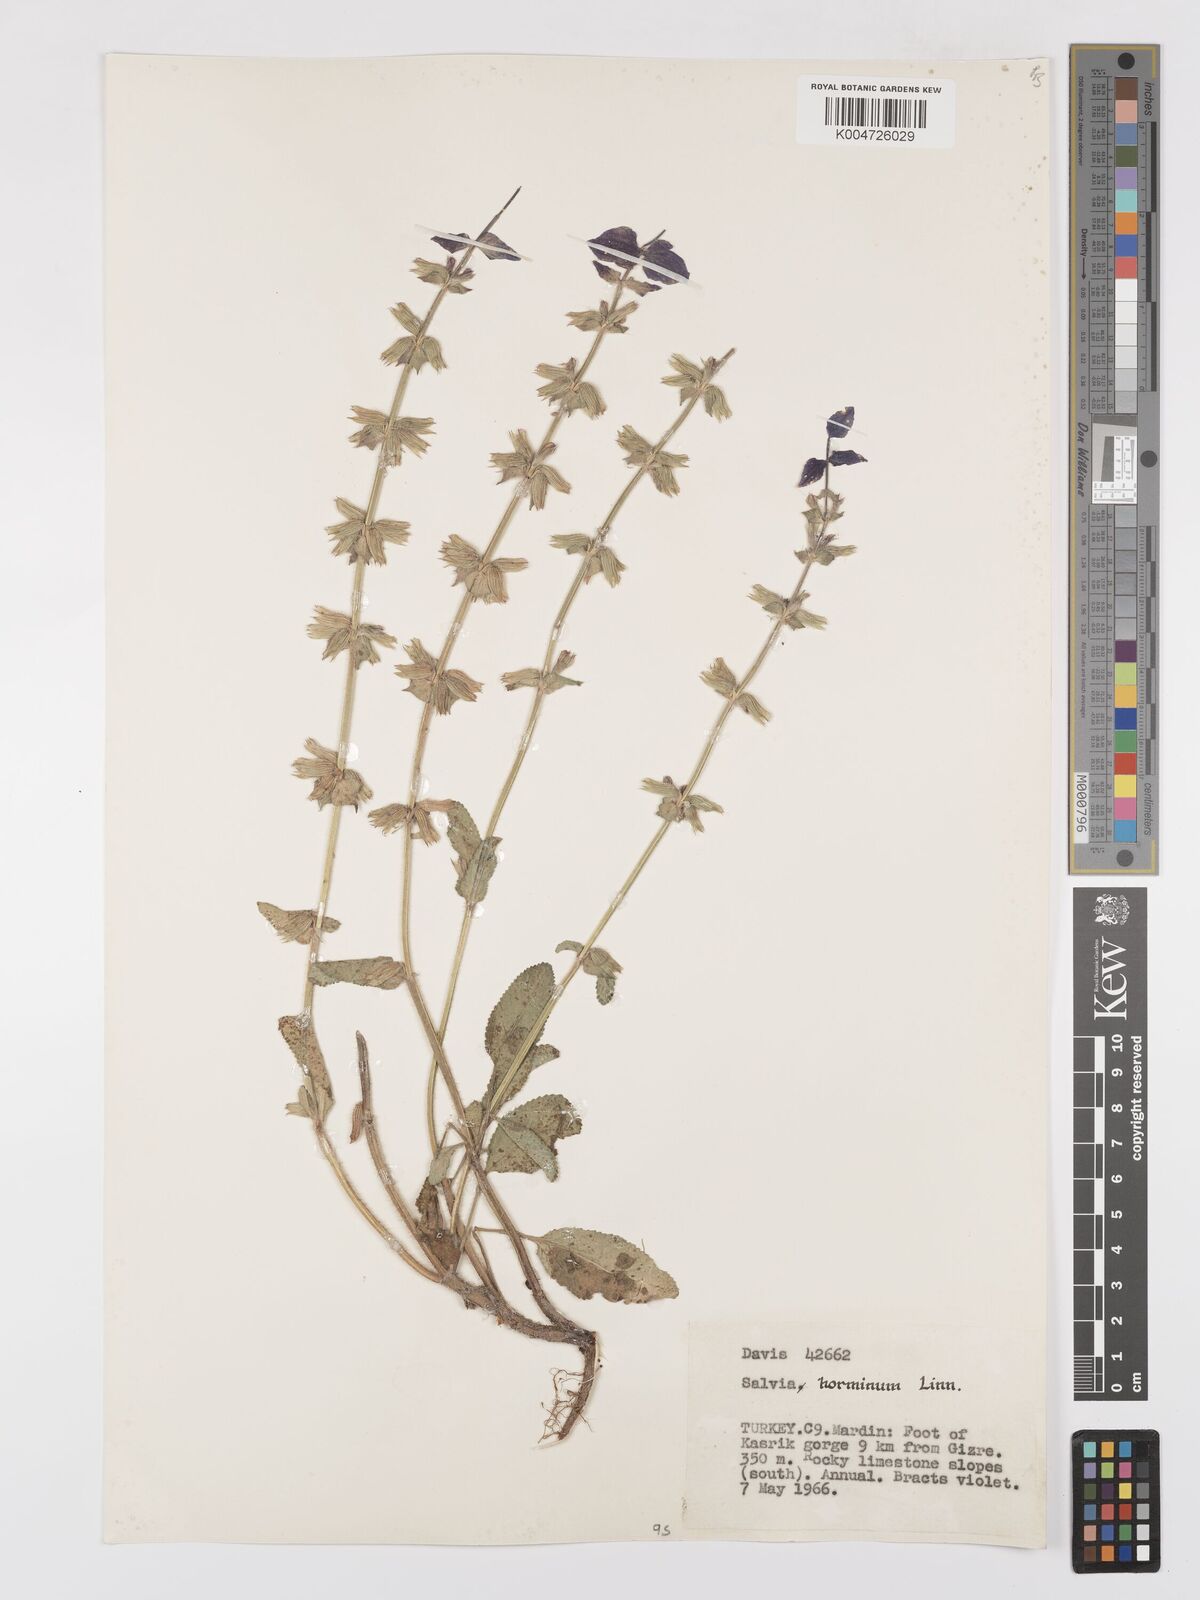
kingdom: Plantae
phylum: Tracheophyta
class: Magnoliopsida
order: Lamiales
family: Lamiaceae
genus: Salvia
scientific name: Salvia viridis
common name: Annual clary
